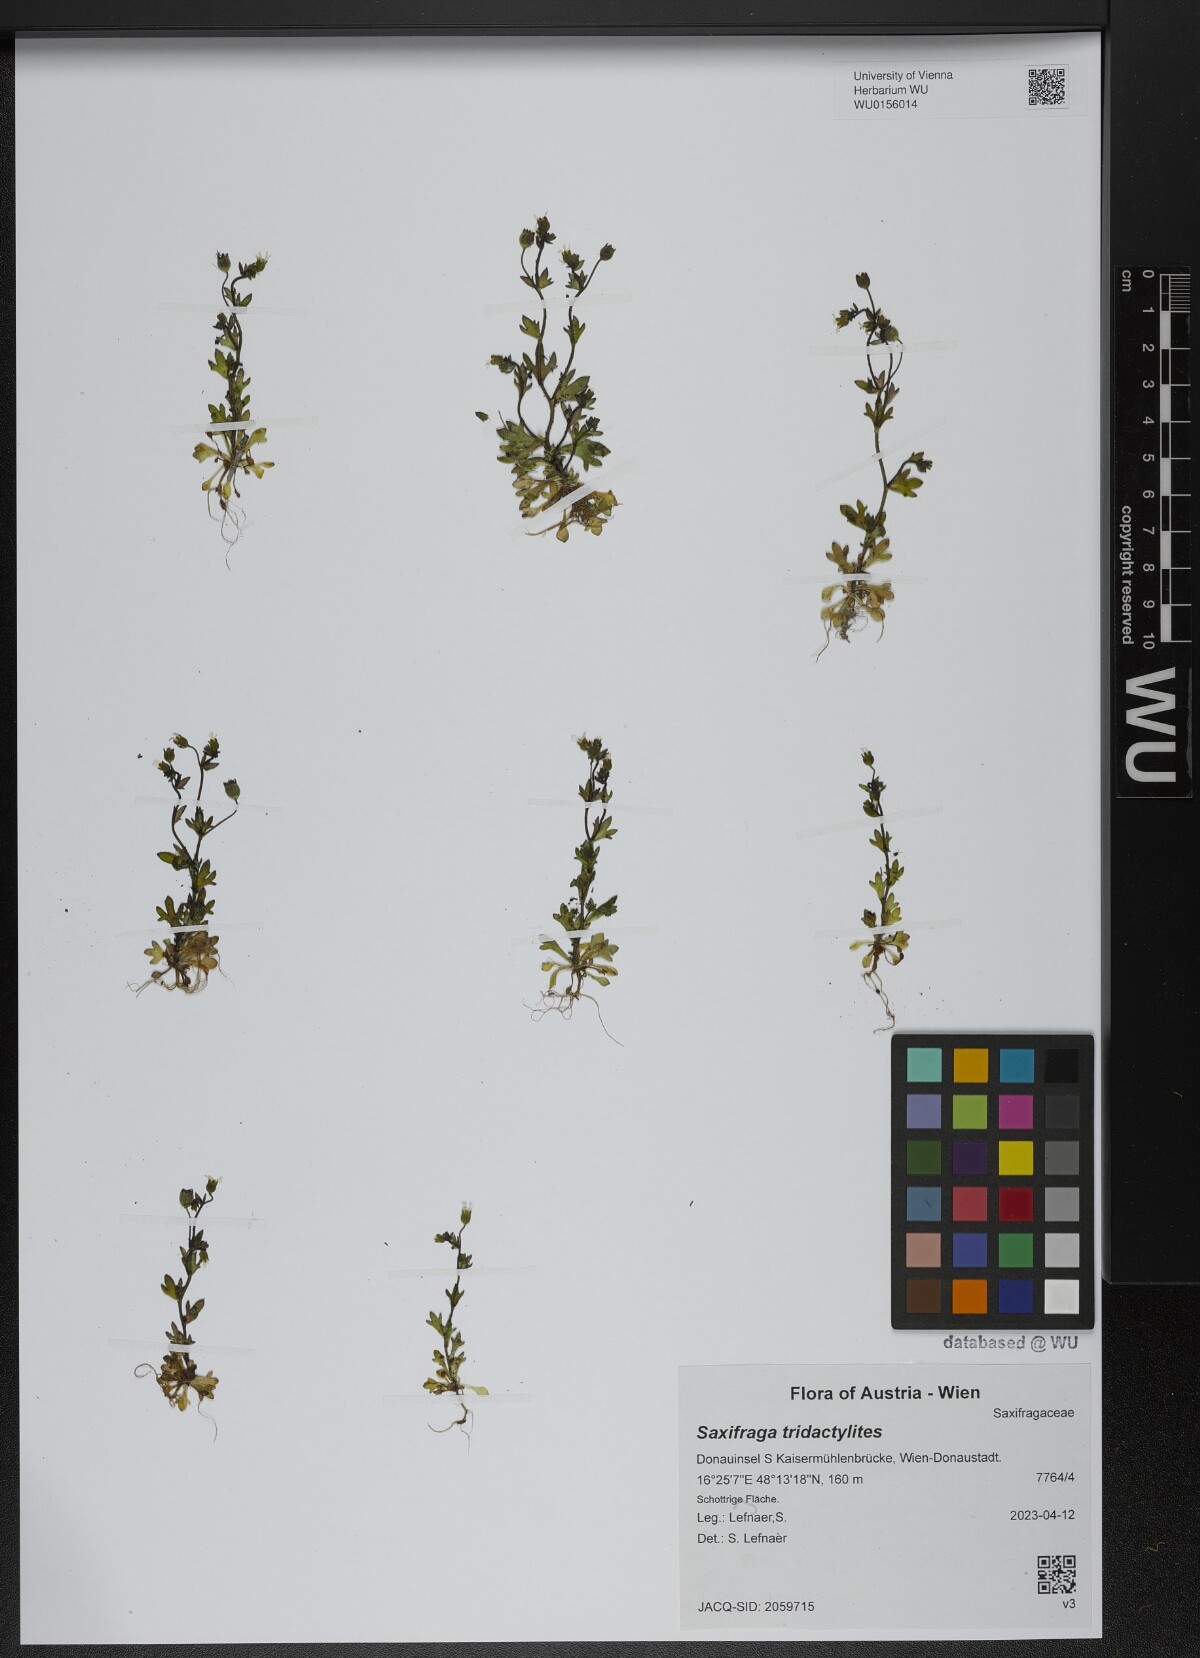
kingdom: Plantae
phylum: Tracheophyta
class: Magnoliopsida
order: Saxifragales
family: Saxifragaceae
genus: Saxifraga
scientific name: Saxifraga tridactylites
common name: Rue-leaved saxifrage
